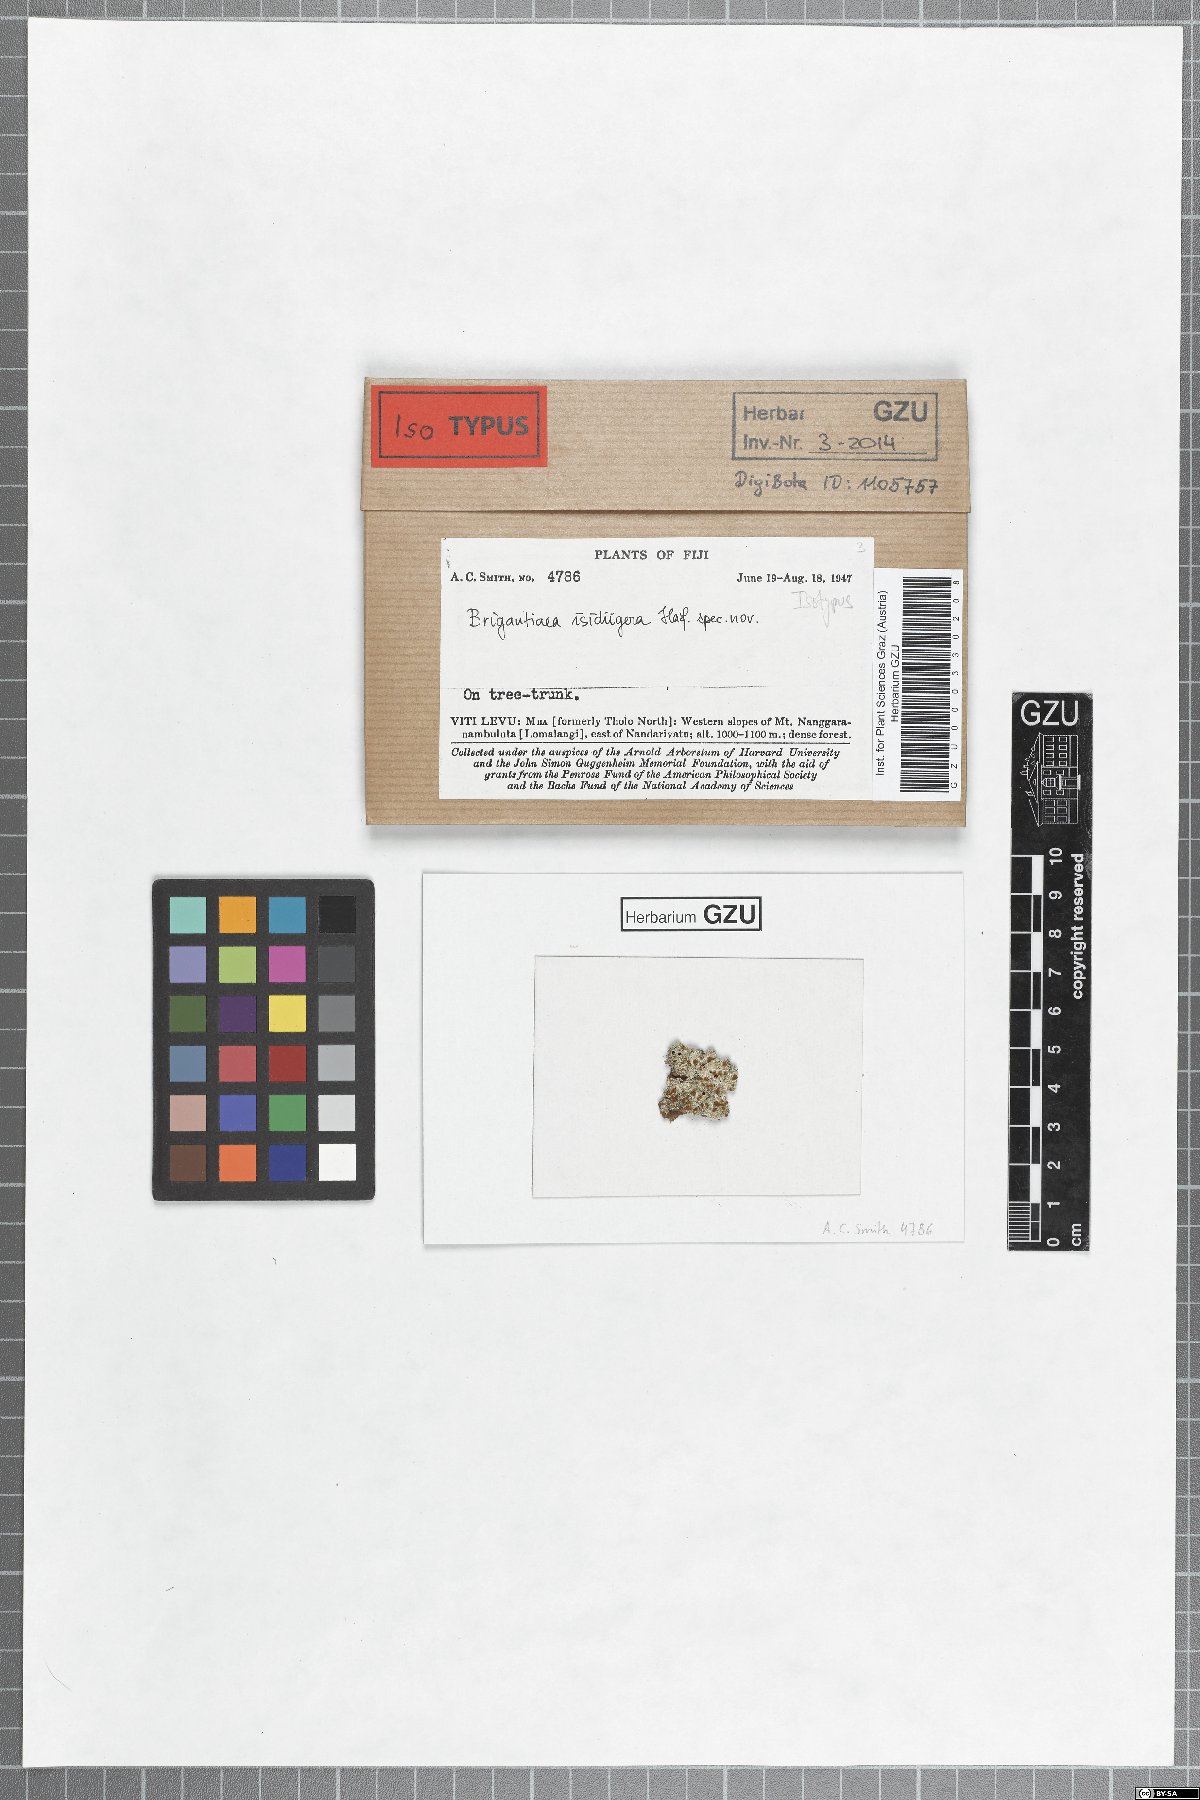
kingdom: Fungi
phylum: Ascomycota
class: Lecanoromycetes
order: Teloschistales
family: Brigantiaeaceae
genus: Brigantiaea
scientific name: Brigantiaea
